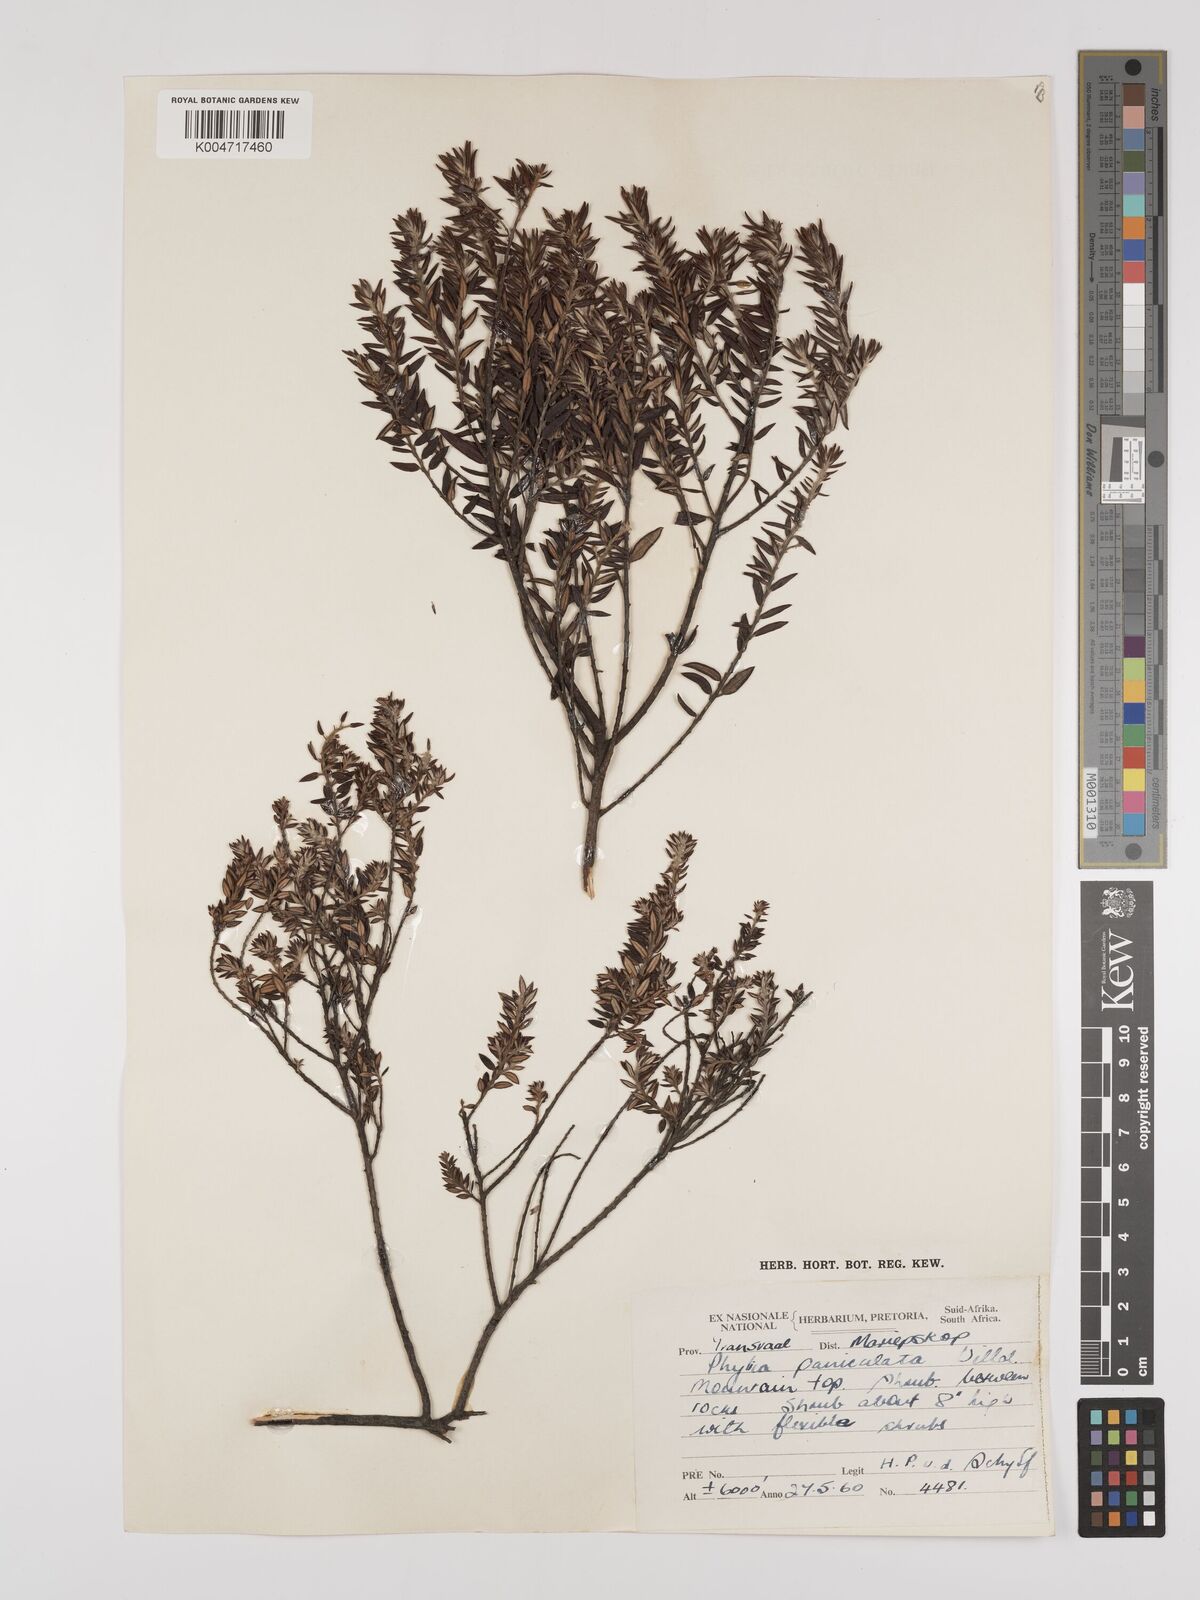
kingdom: Plantae
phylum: Tracheophyta
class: Magnoliopsida
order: Rosales
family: Rhamnaceae
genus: Phylica
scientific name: Phylica paniculata
